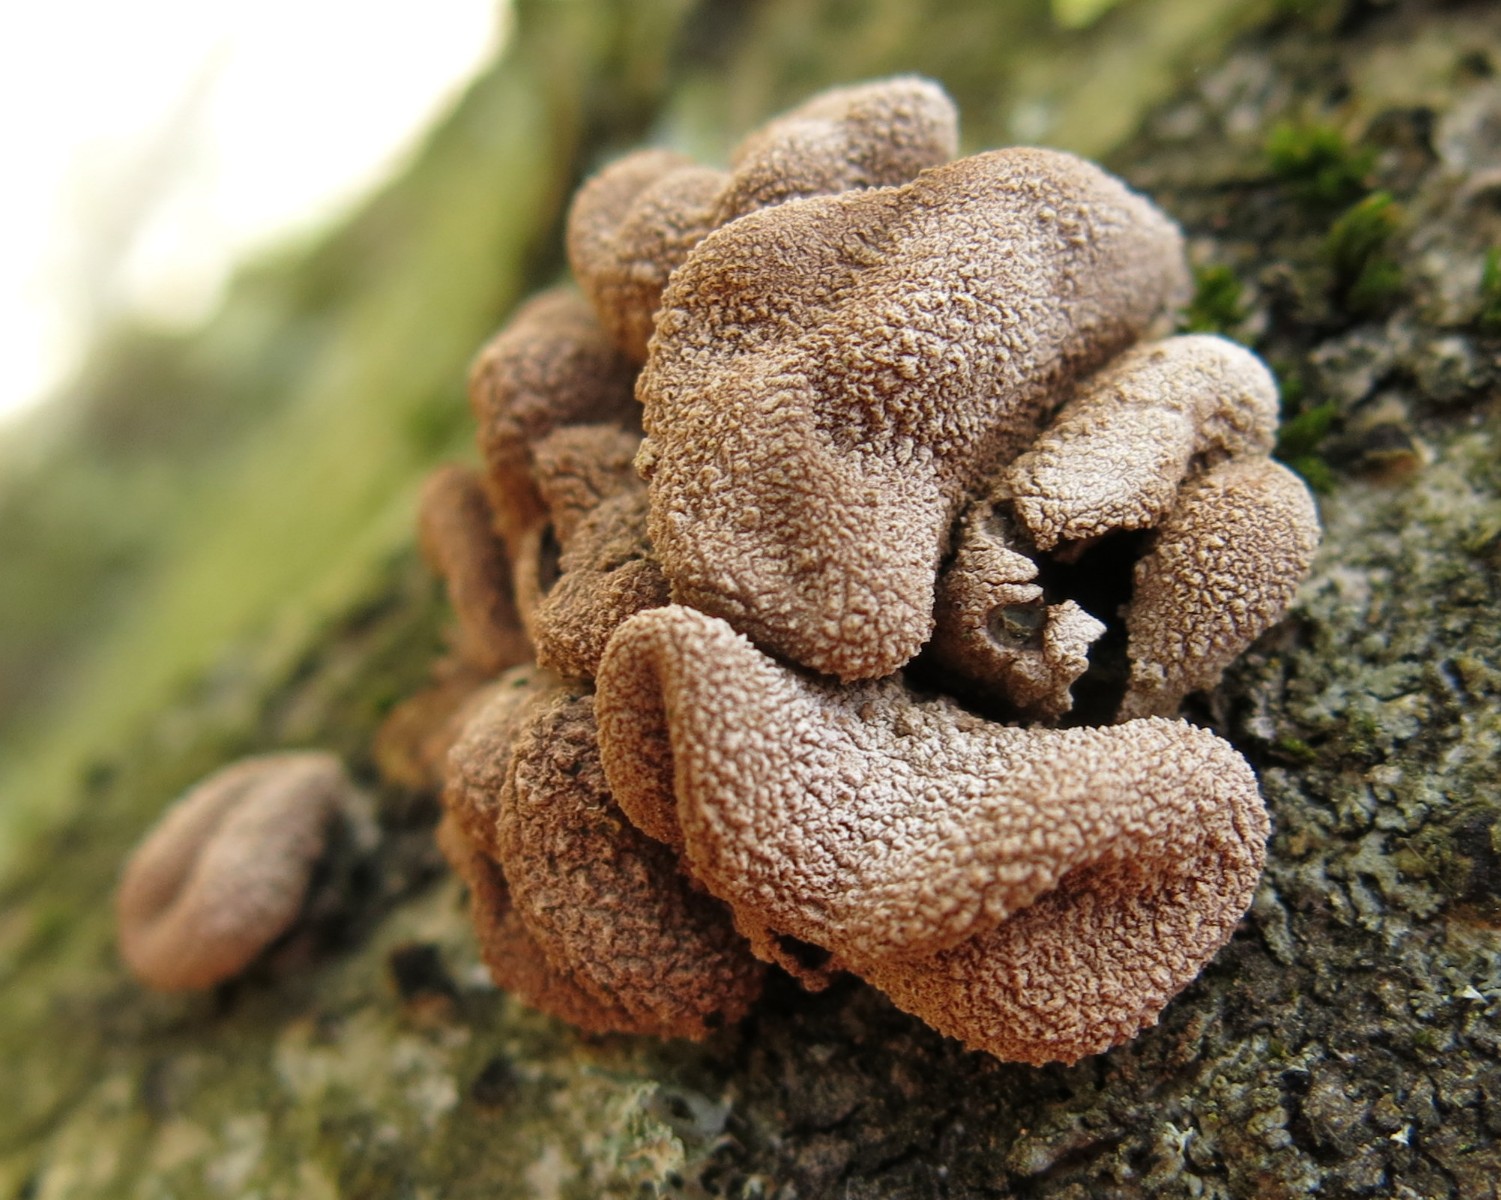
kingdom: Fungi
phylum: Ascomycota
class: Leotiomycetes
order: Helotiales
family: Cenangiaceae
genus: Encoelia
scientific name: Encoelia furfuracea
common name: hassel-læderskive
